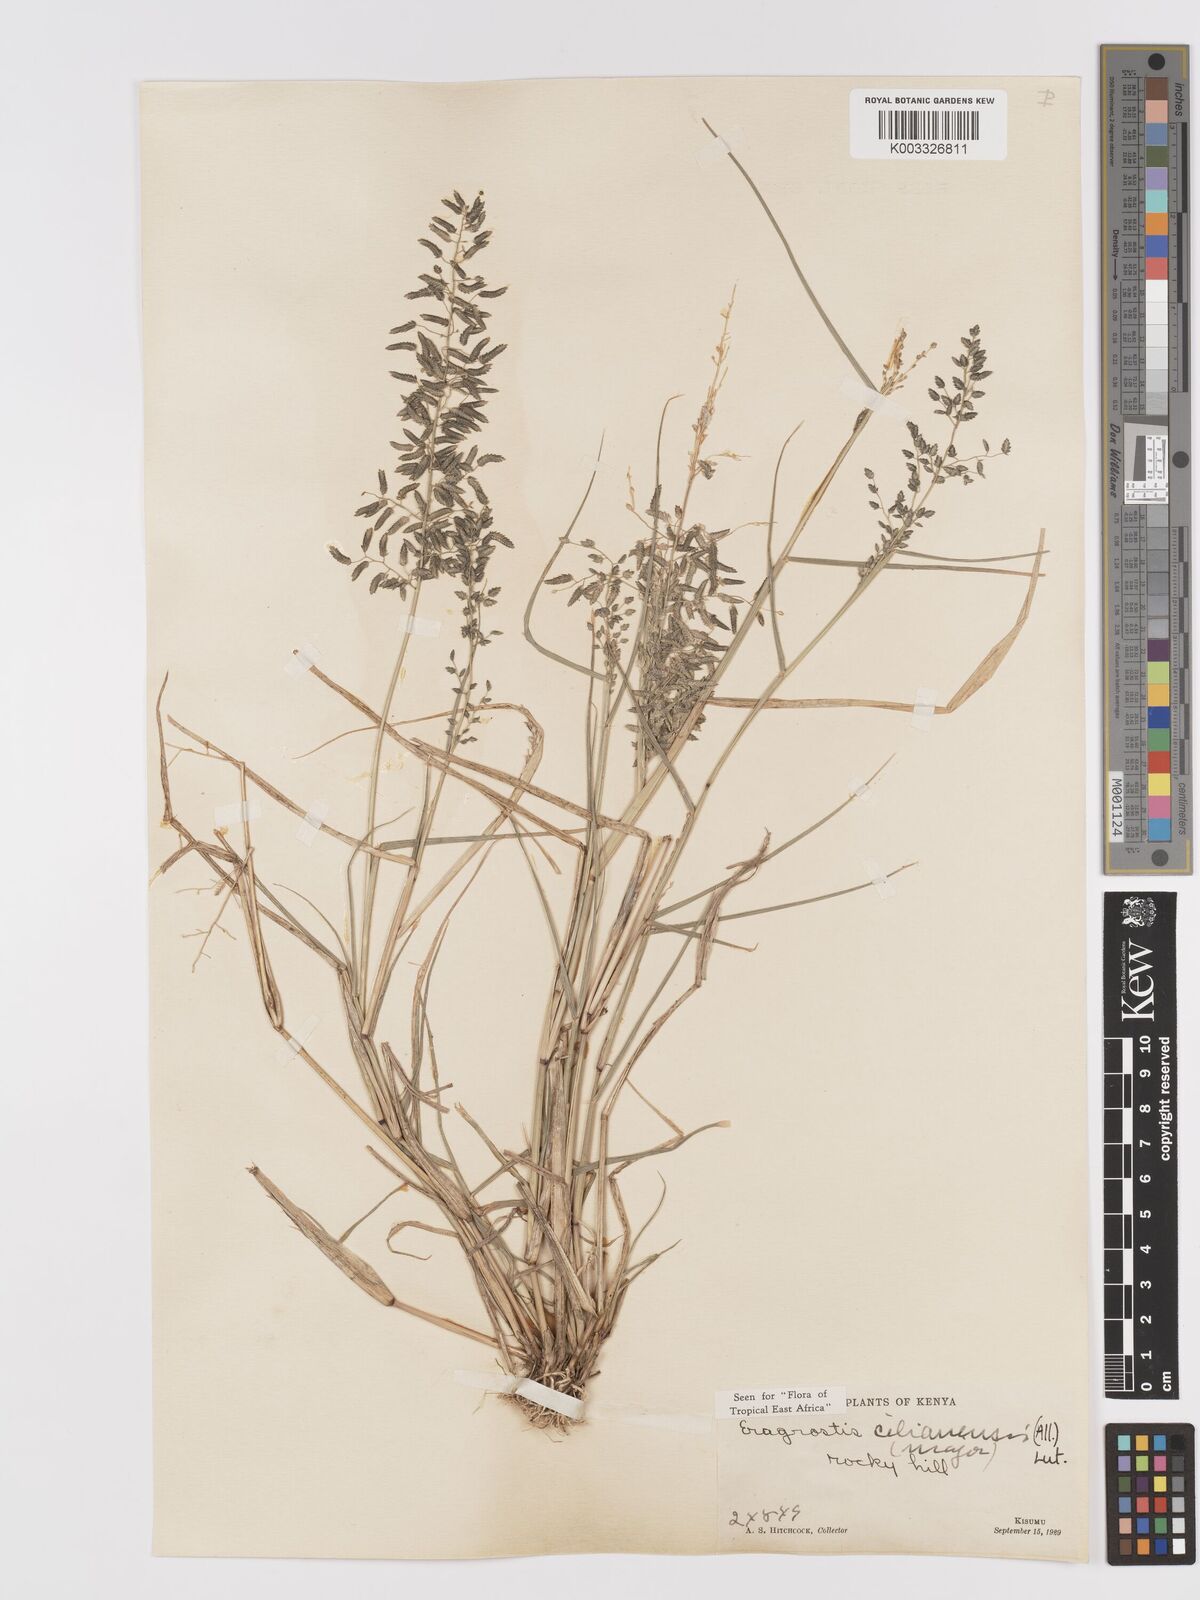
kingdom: Plantae
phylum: Tracheophyta
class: Liliopsida
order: Poales
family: Poaceae
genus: Eragrostis
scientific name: Eragrostis cilianensis
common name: Stinkgrass
